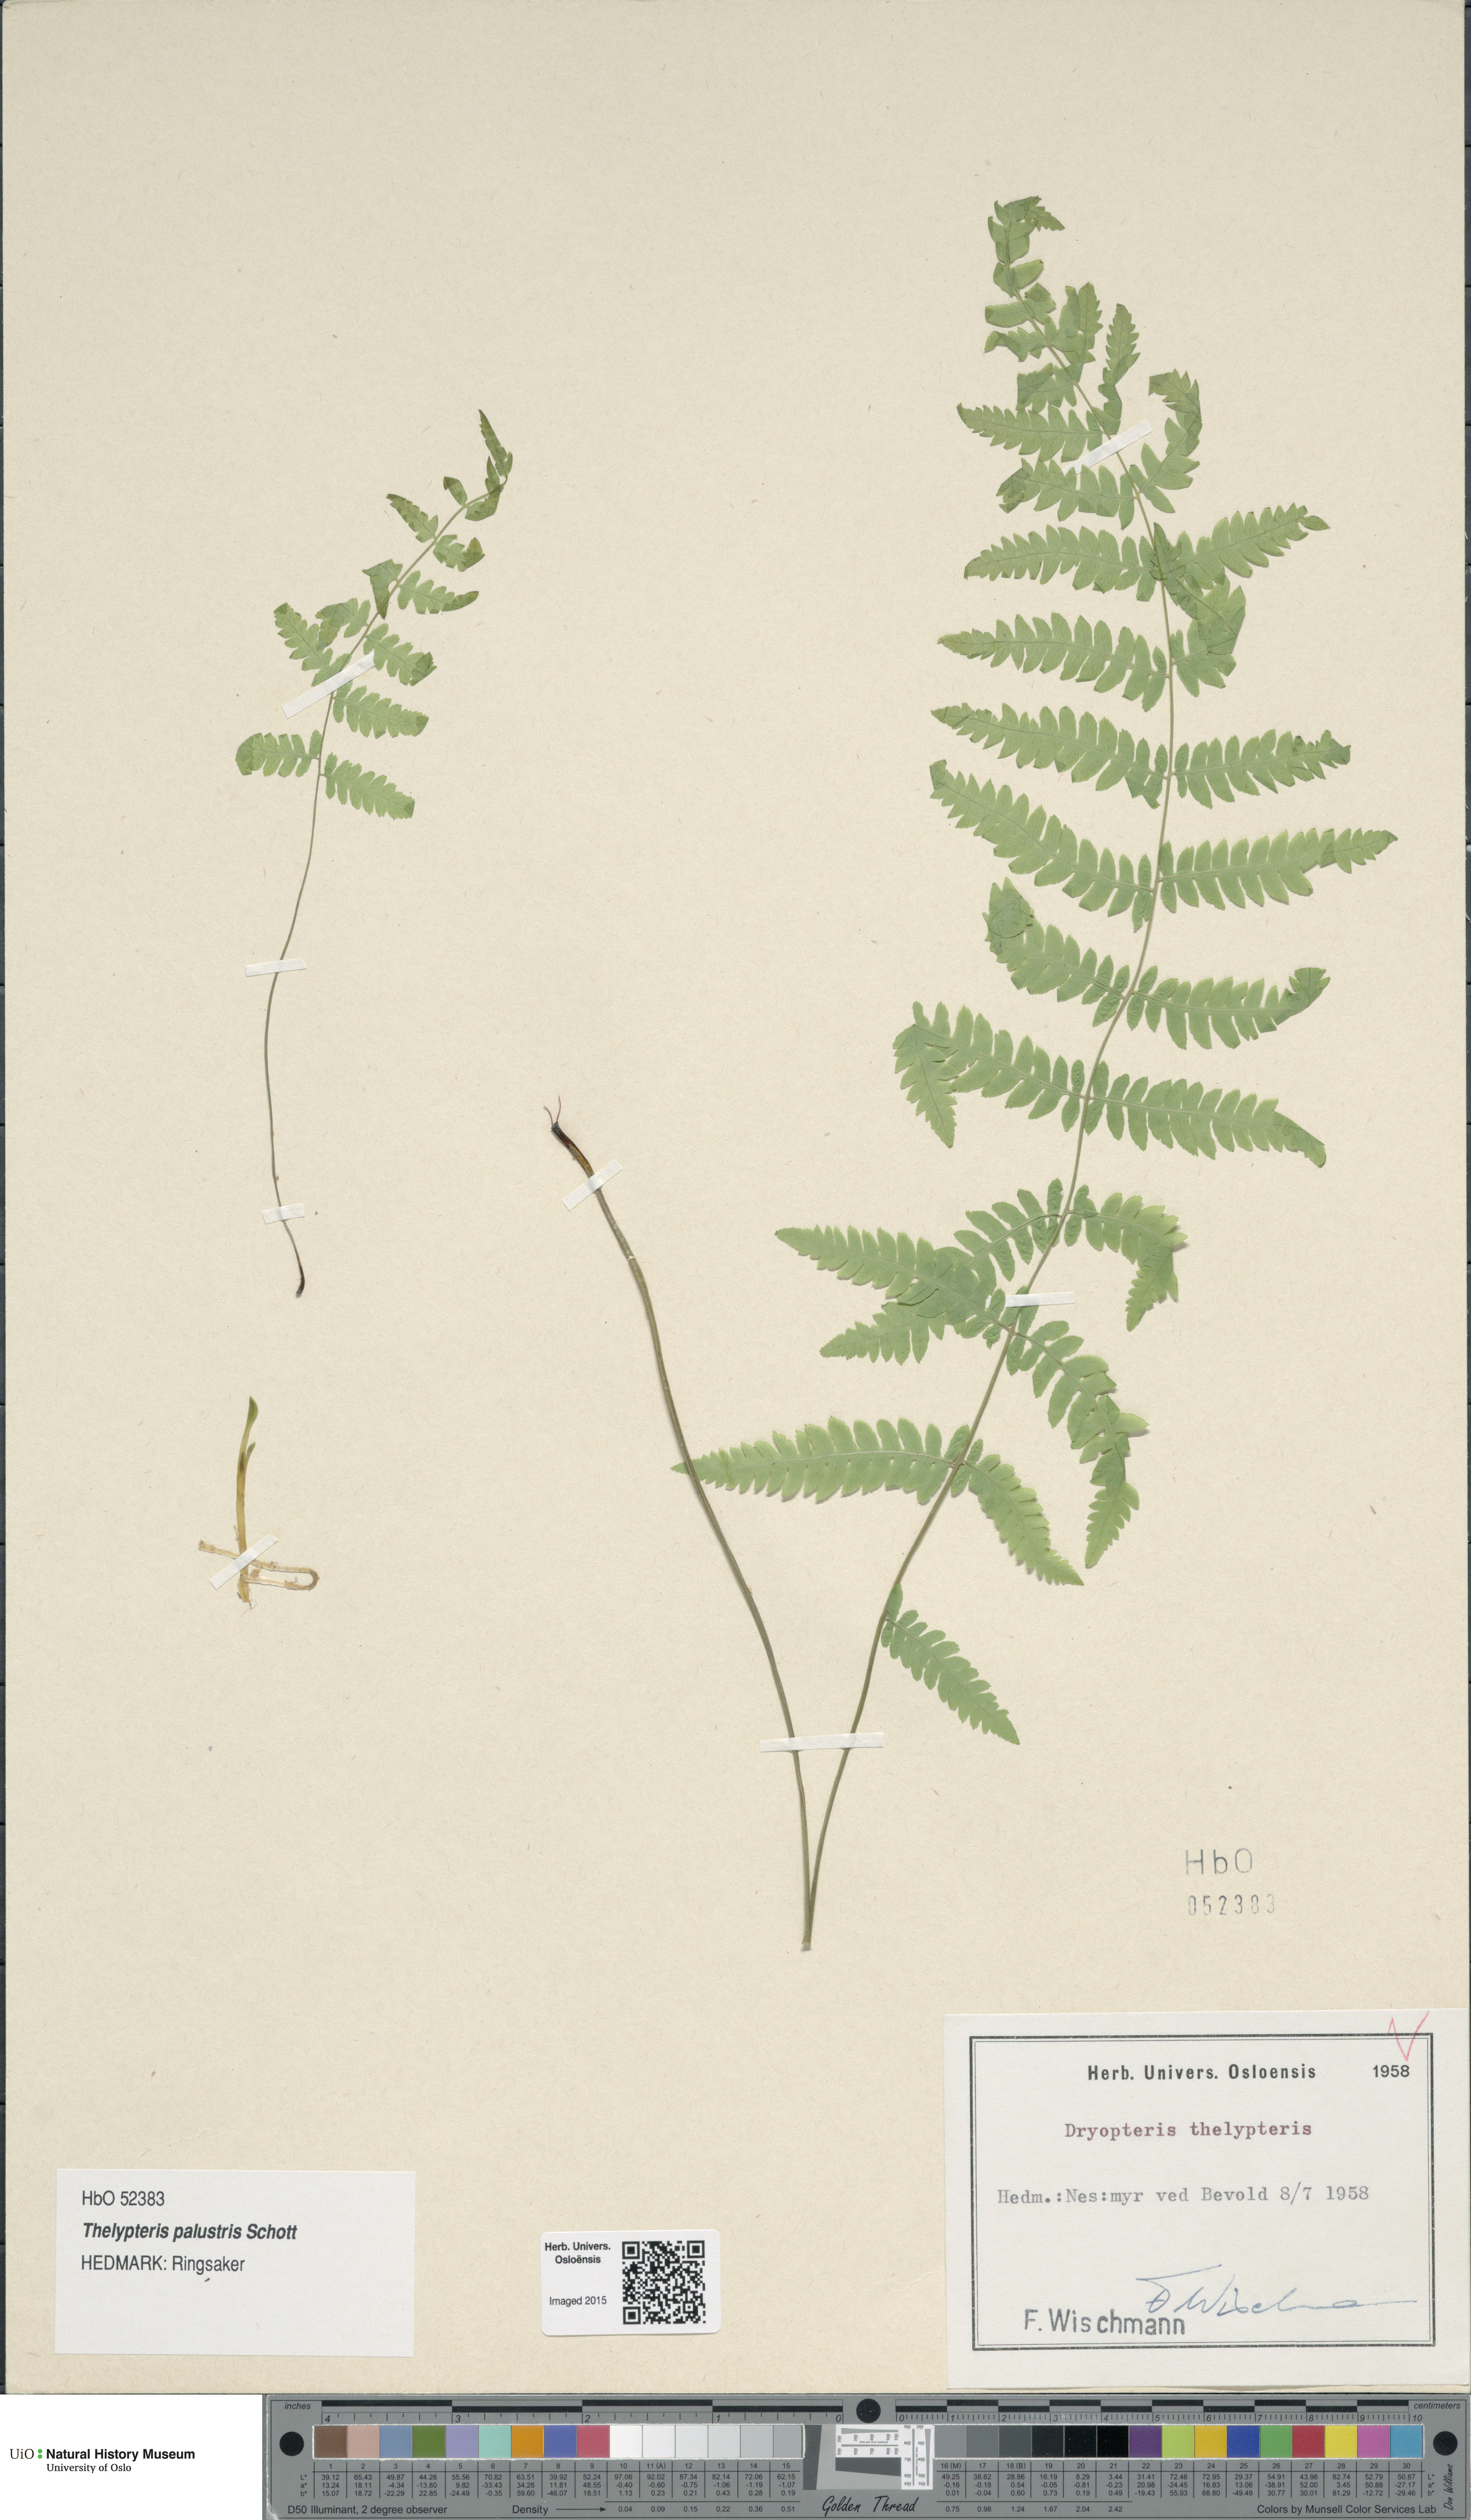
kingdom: Plantae
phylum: Tracheophyta
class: Polypodiopsida
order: Polypodiales
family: Thelypteridaceae
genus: Thelypteris
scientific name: Thelypteris palustris
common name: Marsh fern
